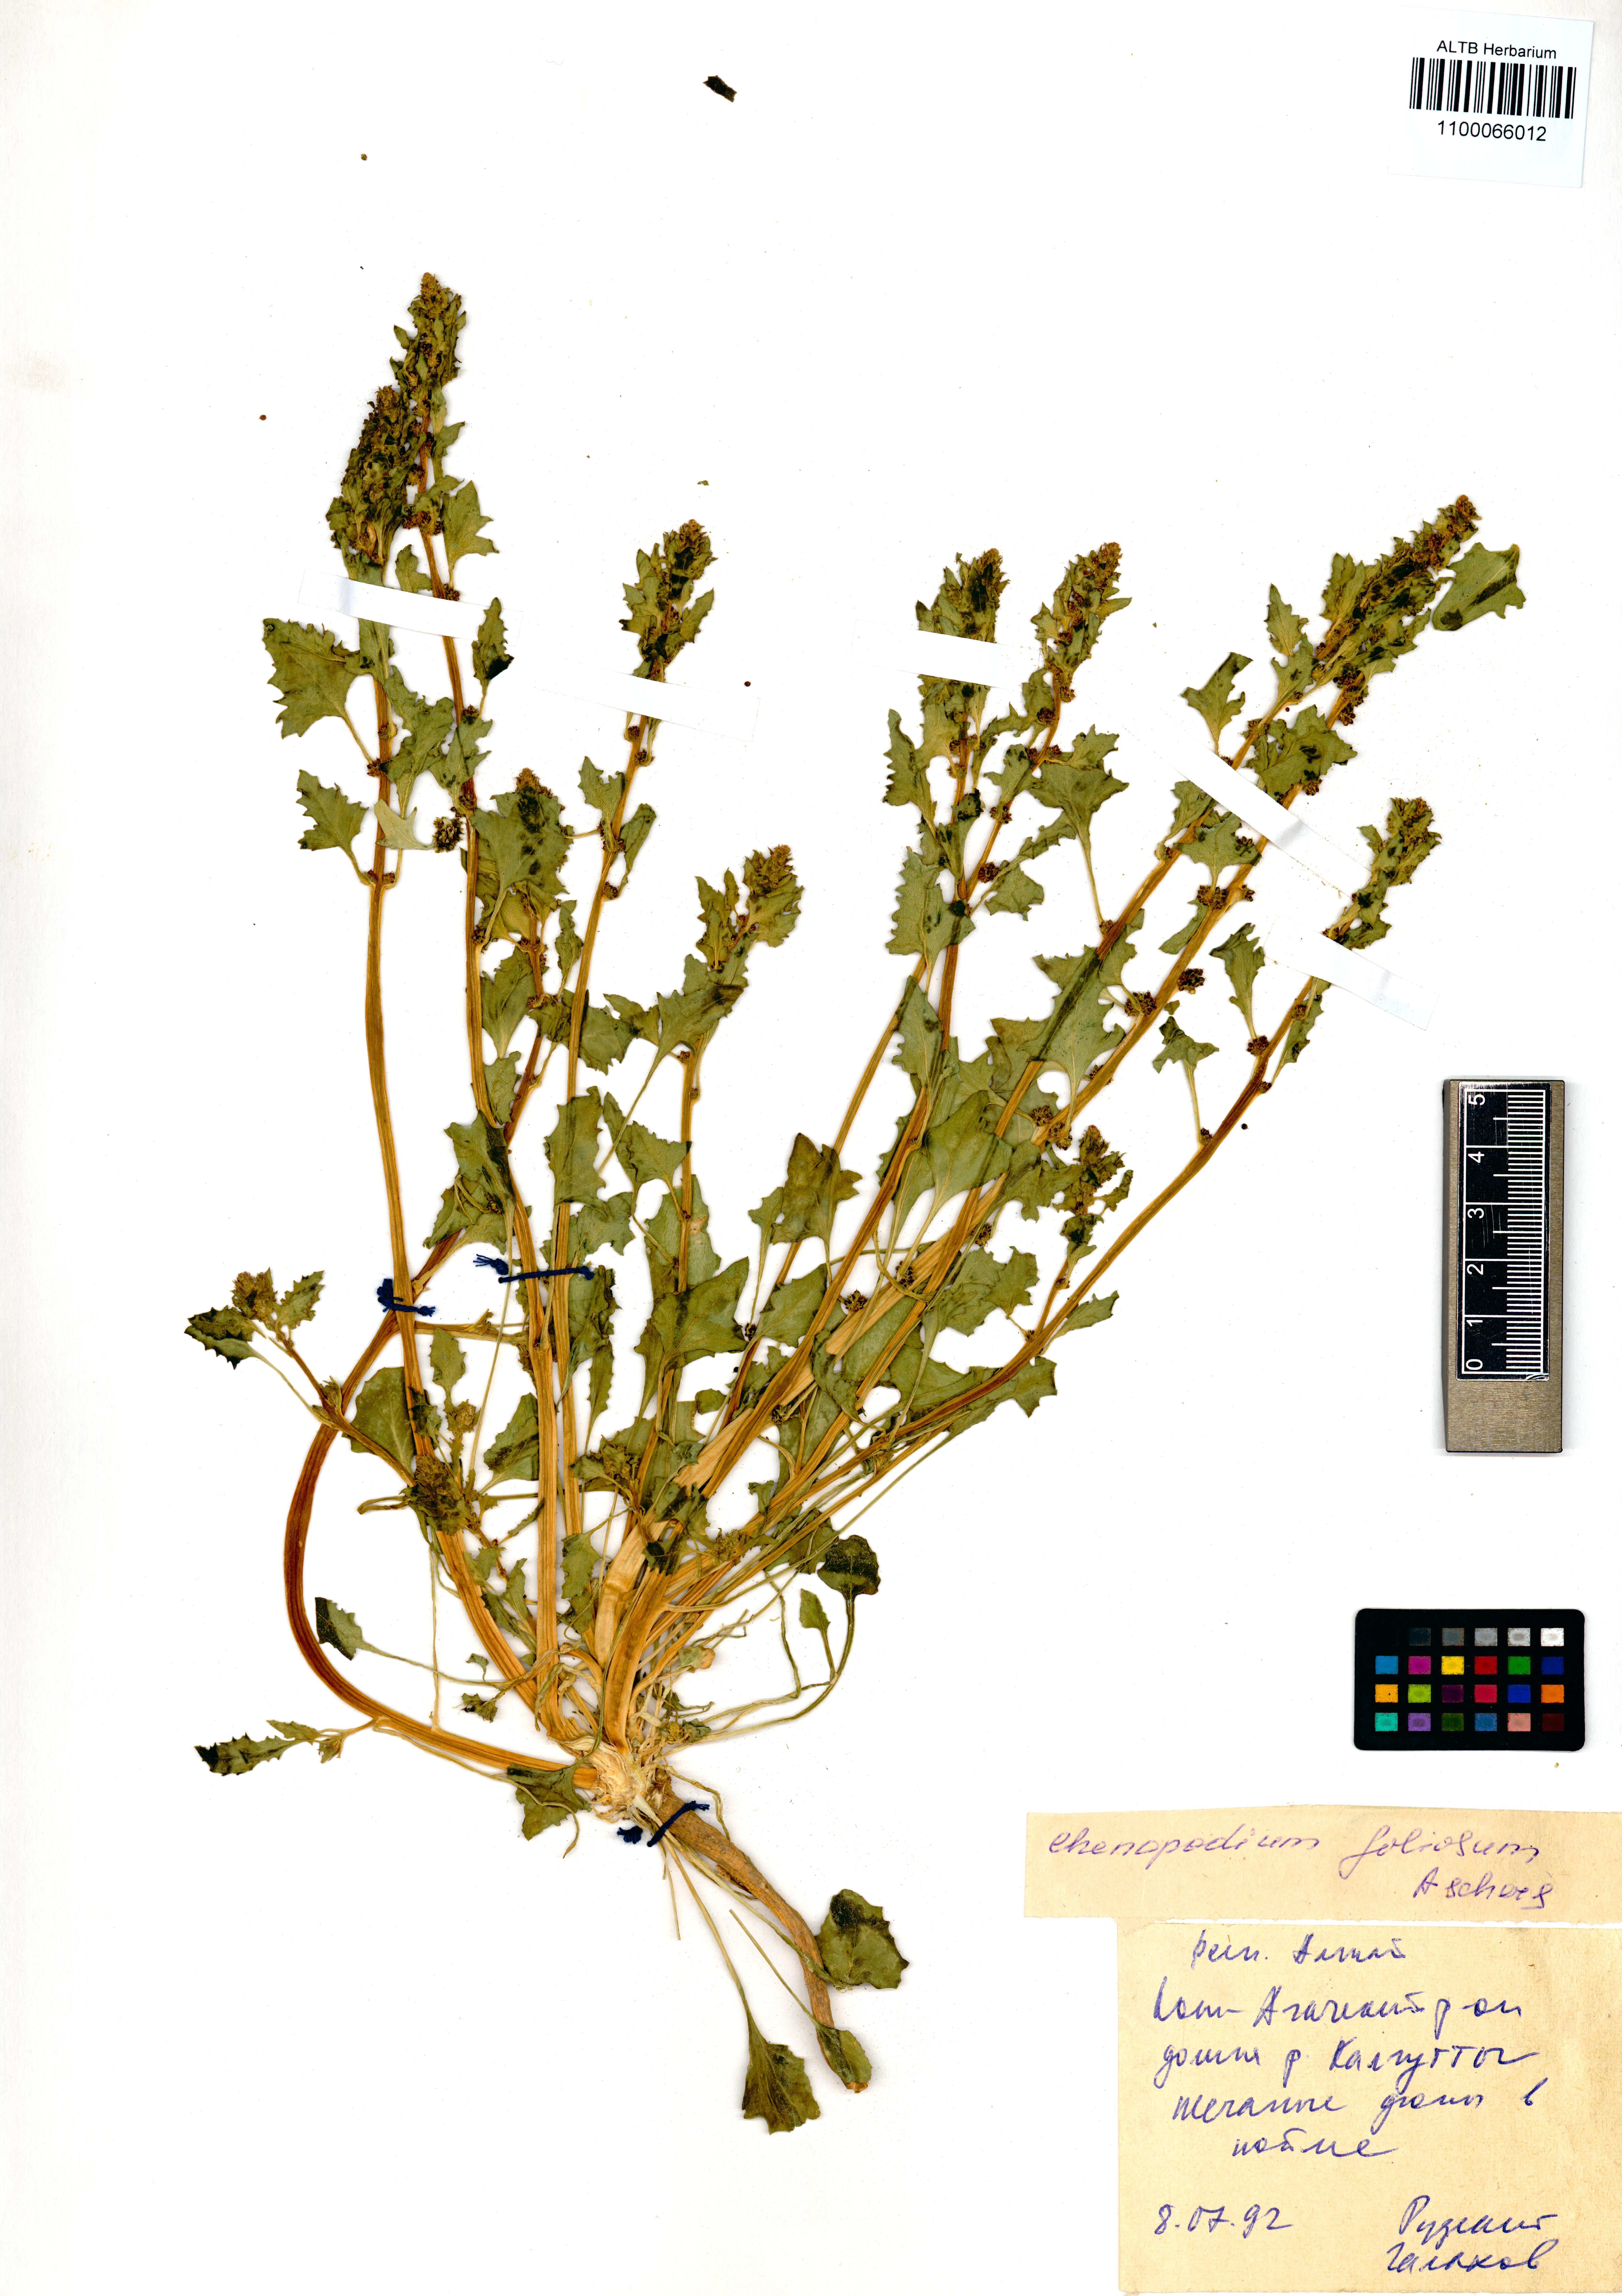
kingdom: Plantae
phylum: Tracheophyta
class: Magnoliopsida
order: Caryophyllales
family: Amaranthaceae
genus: Blitum
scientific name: Blitum virgatum
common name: Strawberry goosefoot
